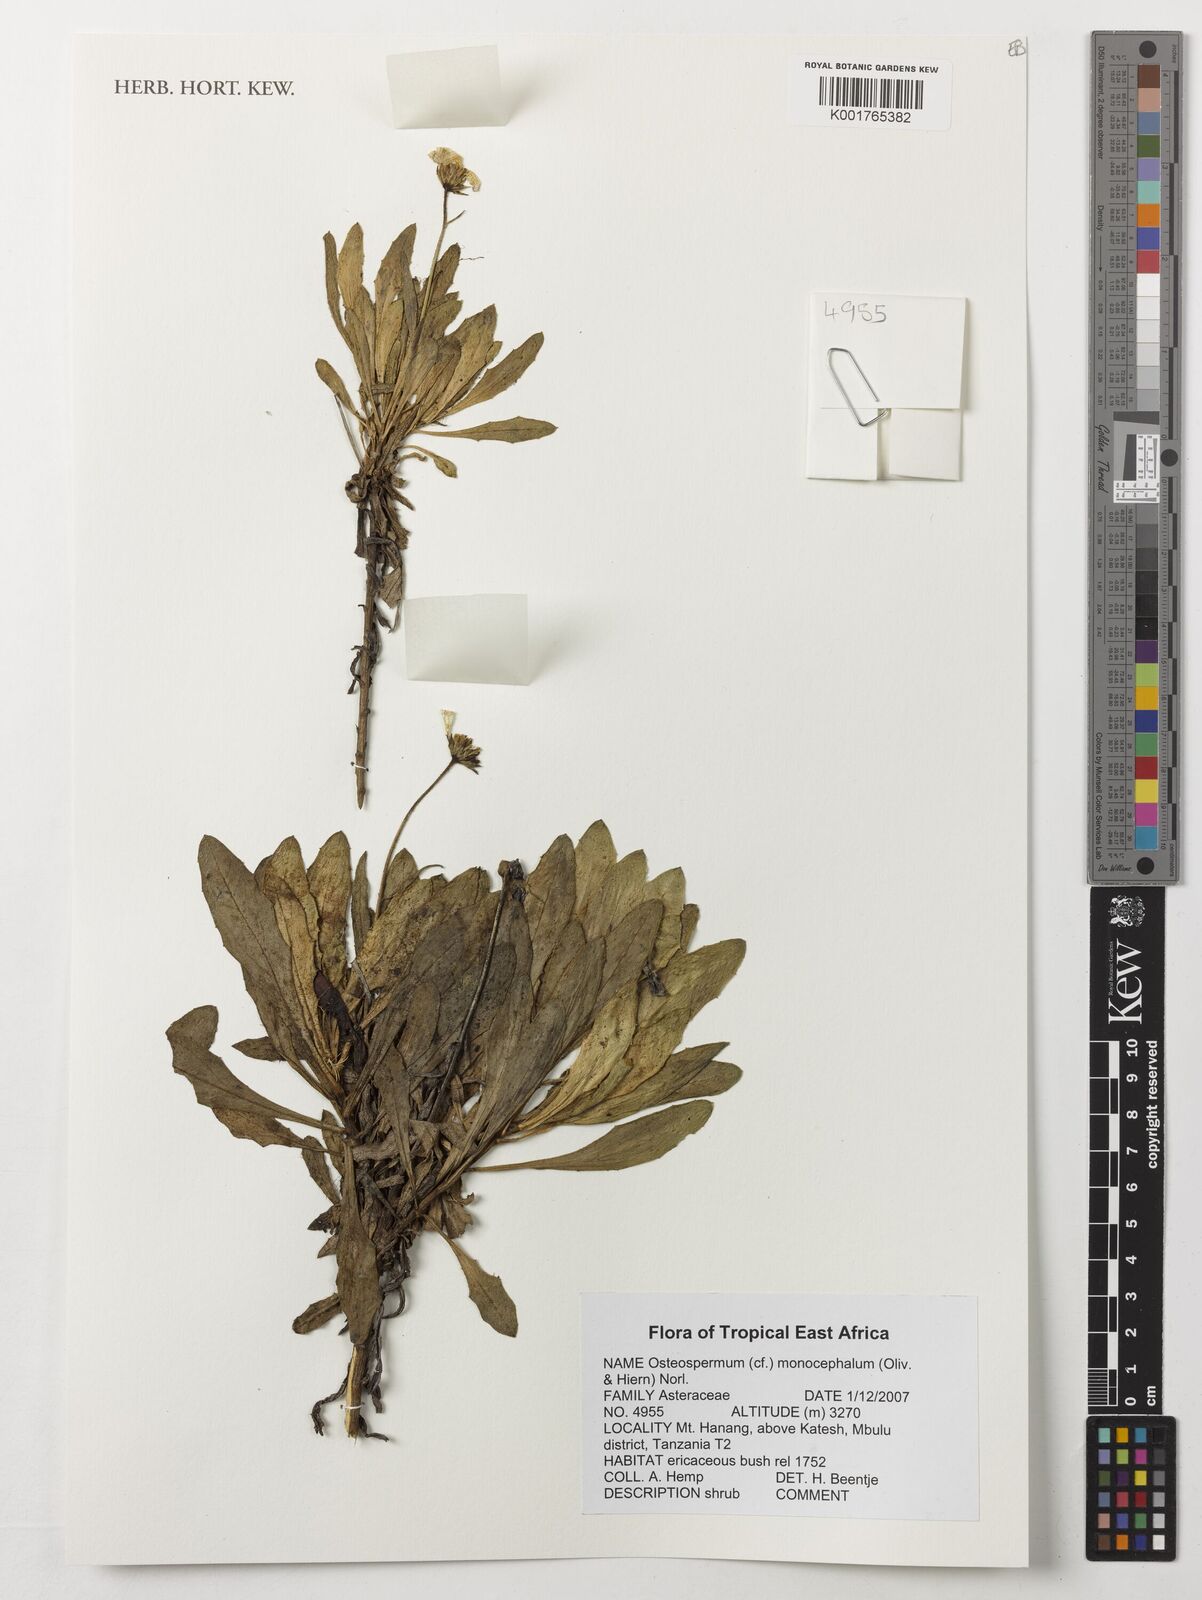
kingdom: Plantae
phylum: Tracheophyta
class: Magnoliopsida
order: Asterales
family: Asteraceae
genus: Osteospermum
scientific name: Osteospermum monocephalum
